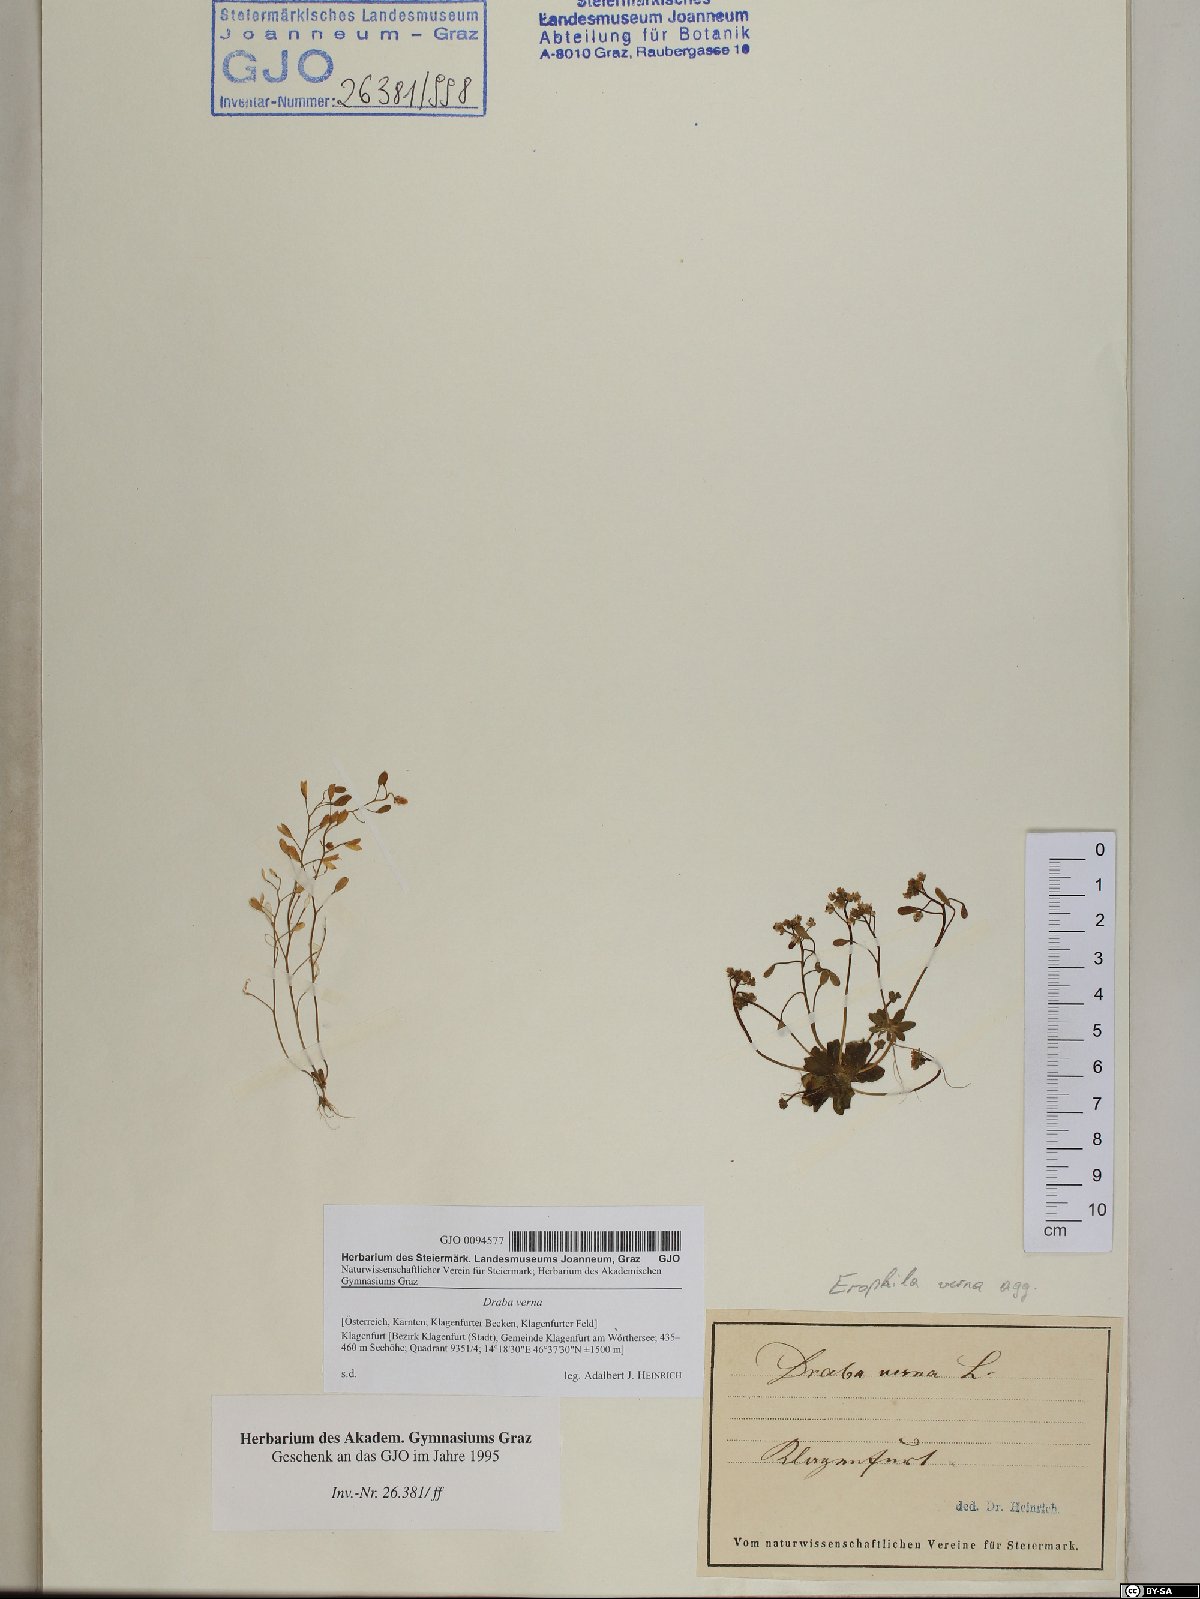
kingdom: Plantae
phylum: Tracheophyta
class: Magnoliopsida
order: Brassicales
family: Brassicaceae
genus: Draba
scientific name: Draba verna
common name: Spring draba
